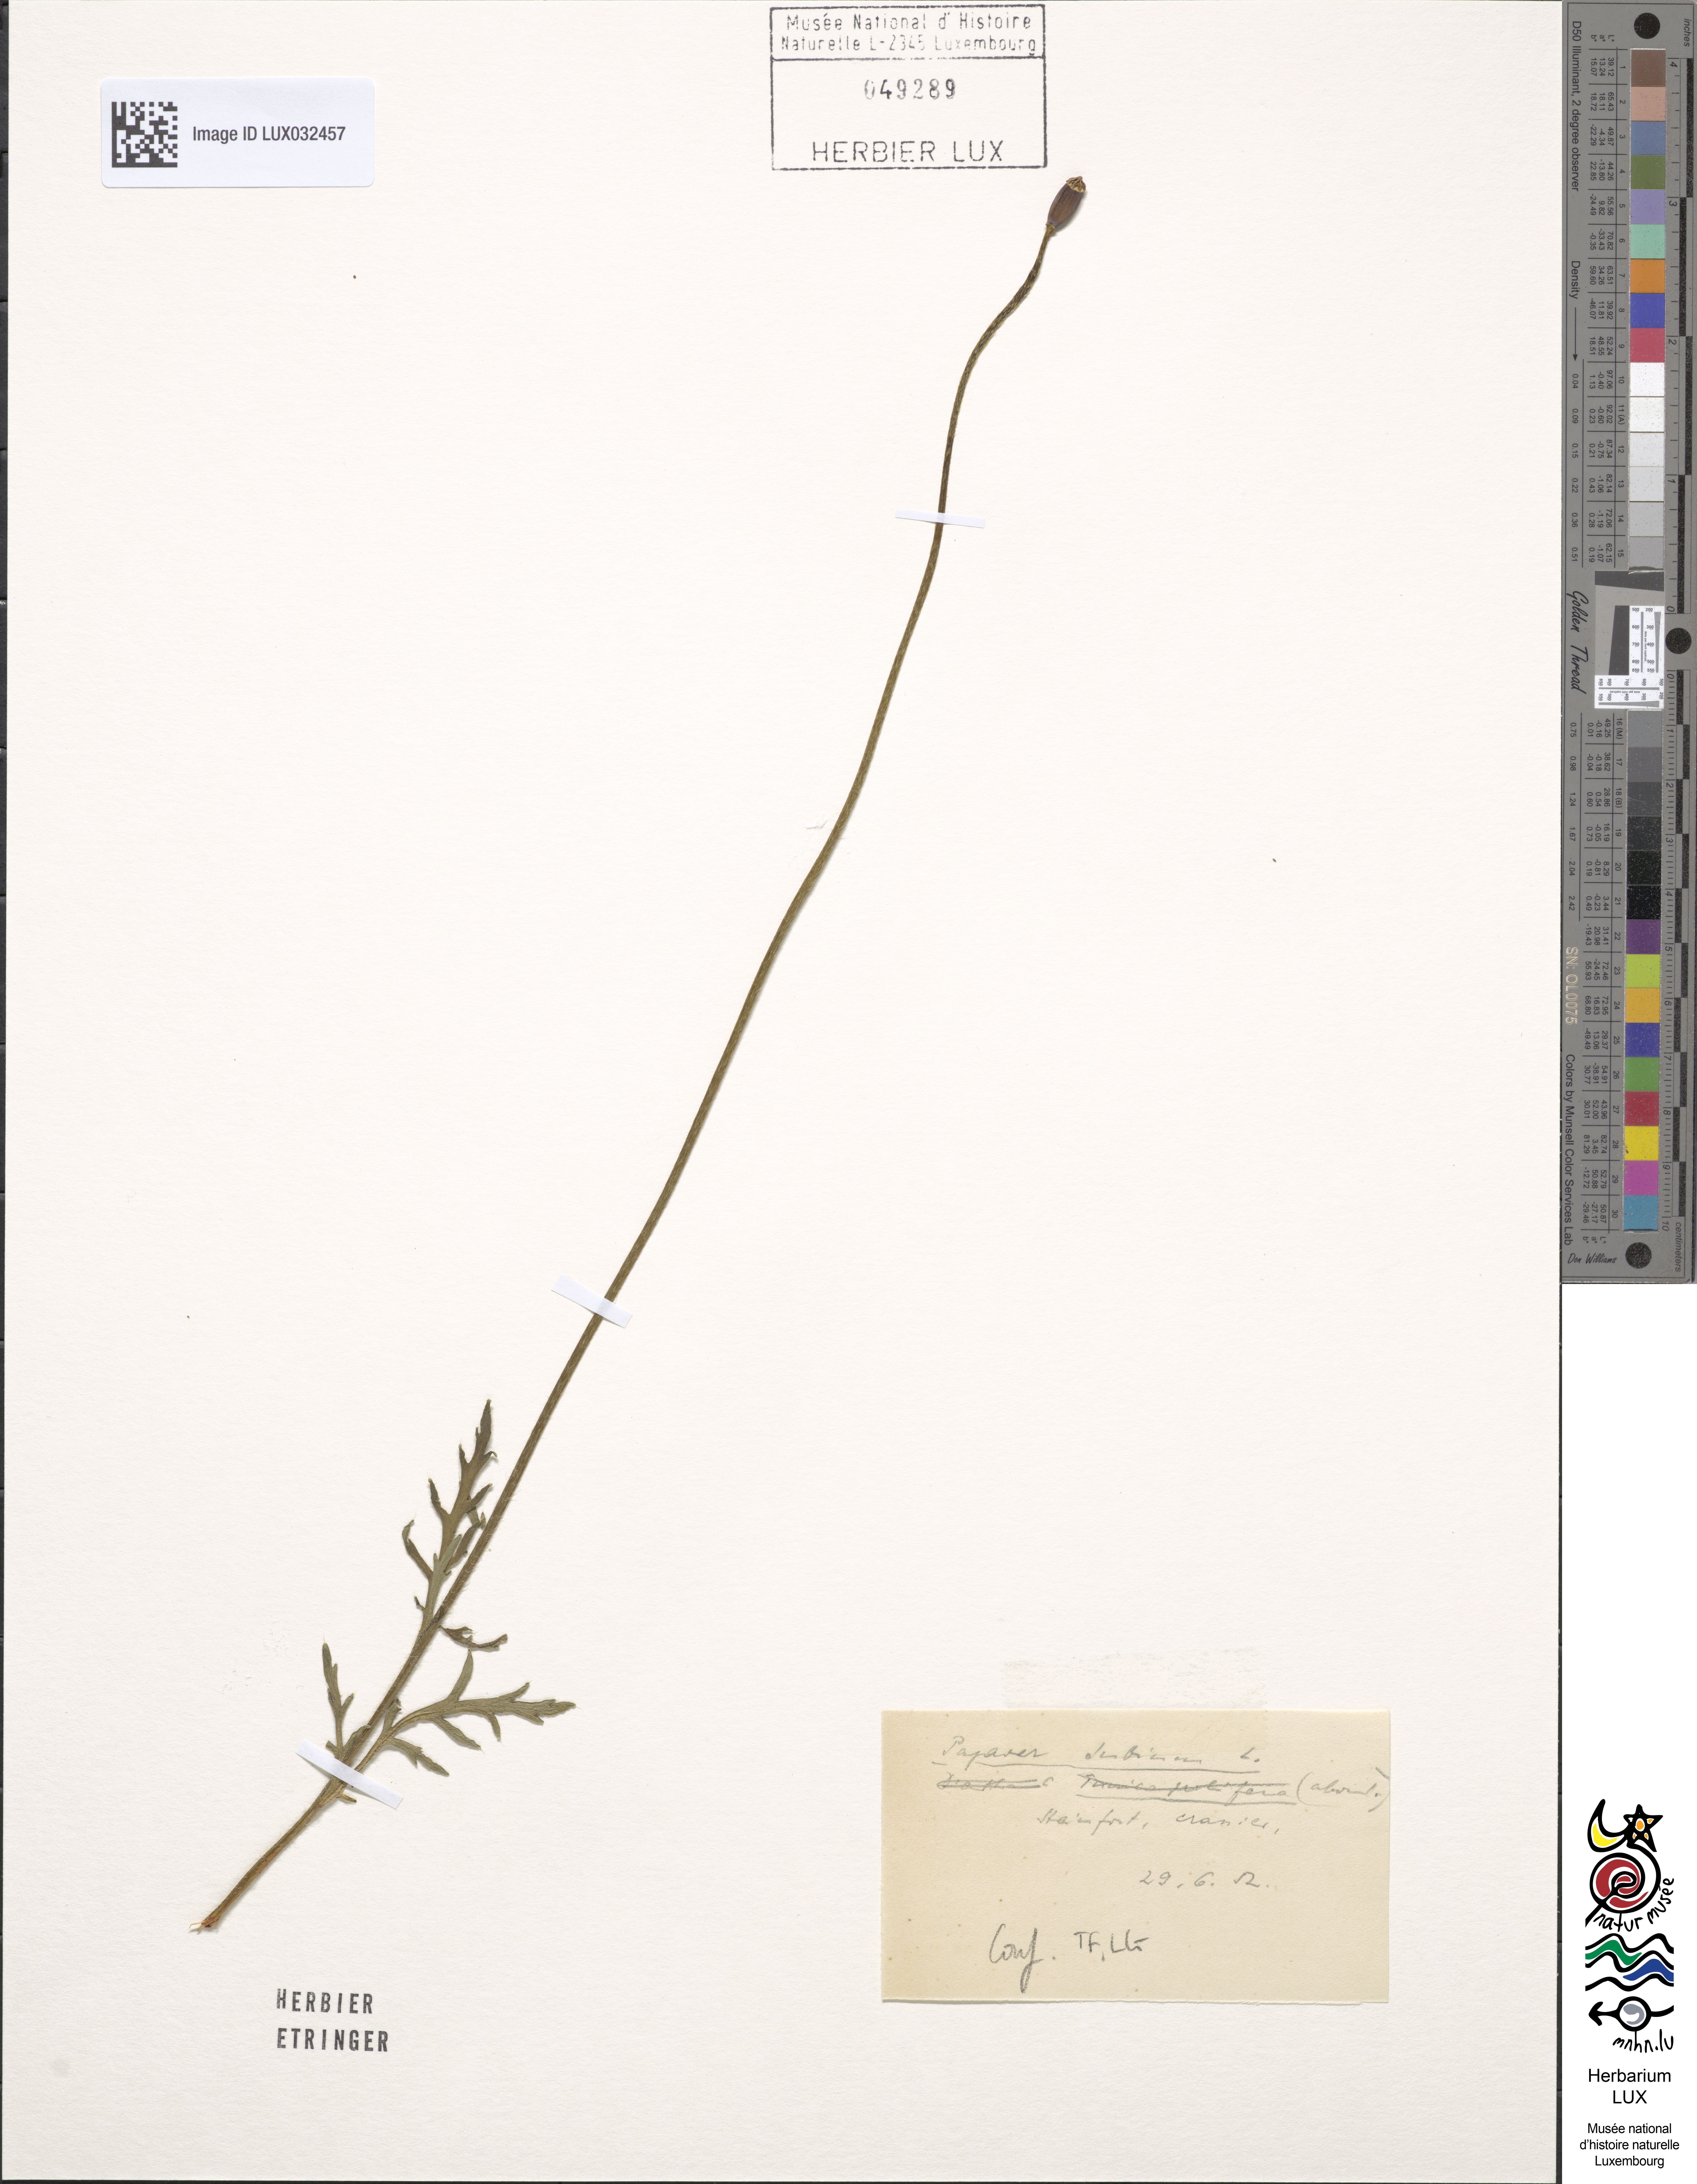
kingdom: Plantae
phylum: Tracheophyta
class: Magnoliopsida
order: Ranunculales
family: Papaveraceae
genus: Papaver
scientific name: Papaver dubium
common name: Long-headed poppy
